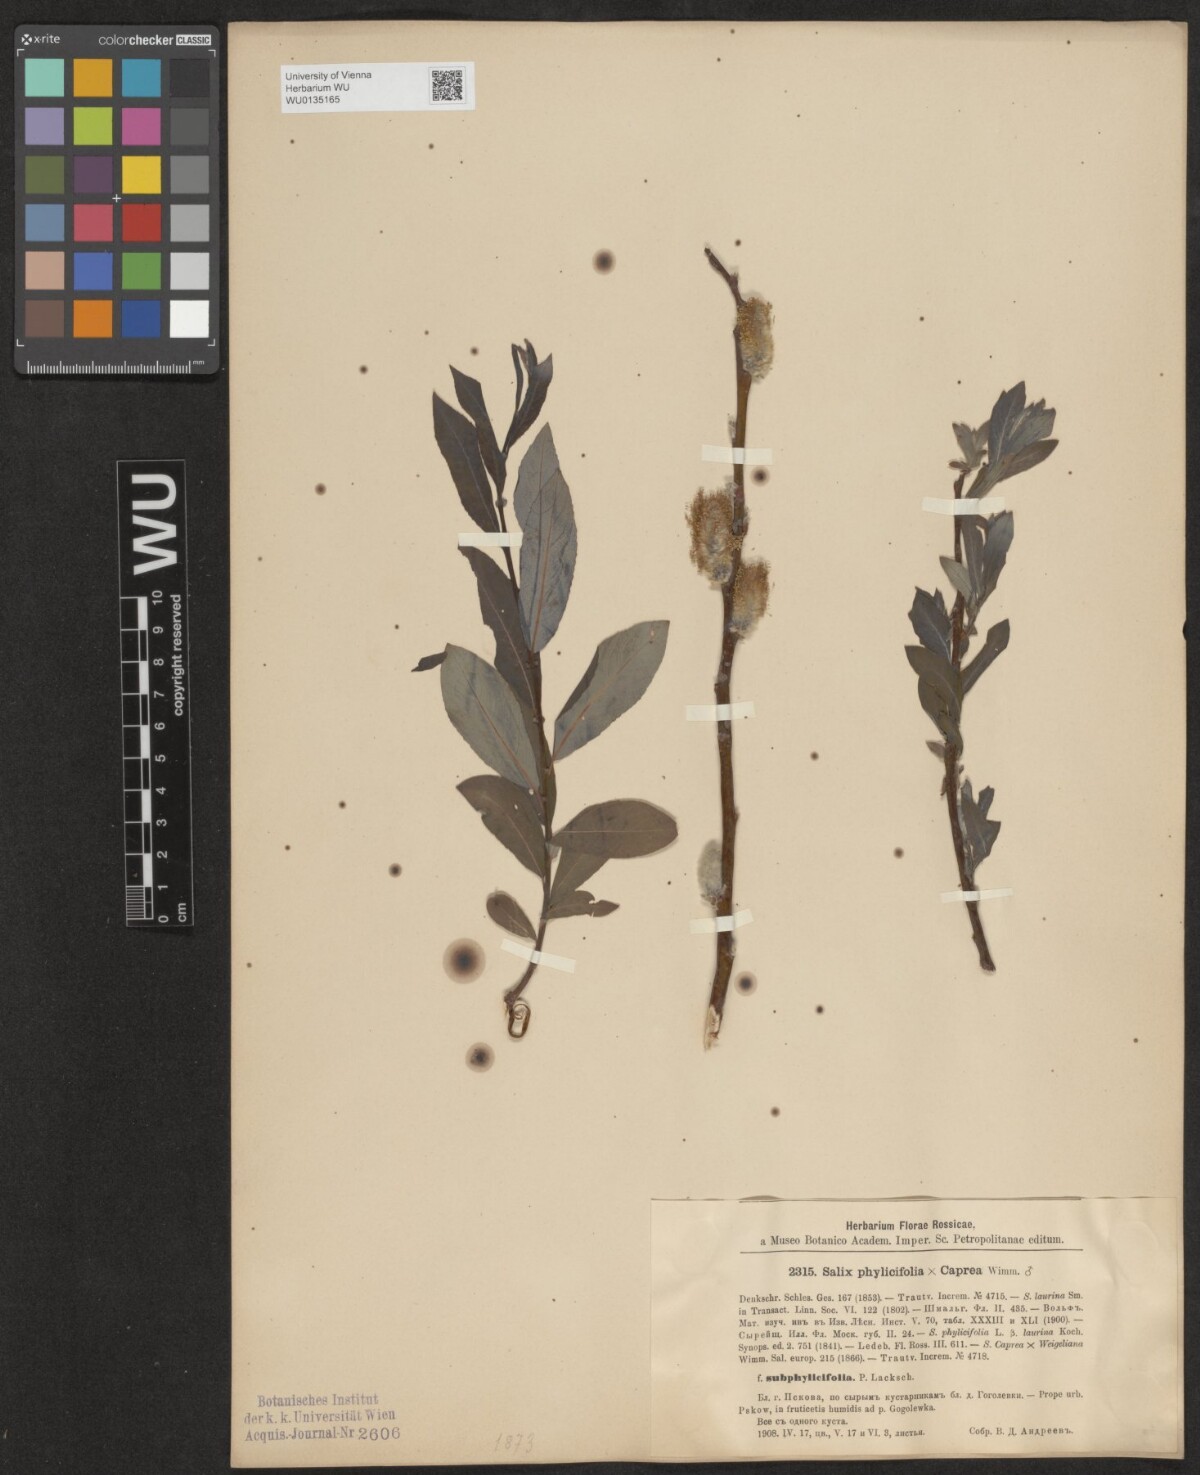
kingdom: Plantae
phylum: Tracheophyta
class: Magnoliopsida
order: Malpighiales
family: Salicaceae
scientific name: Salicaceae
